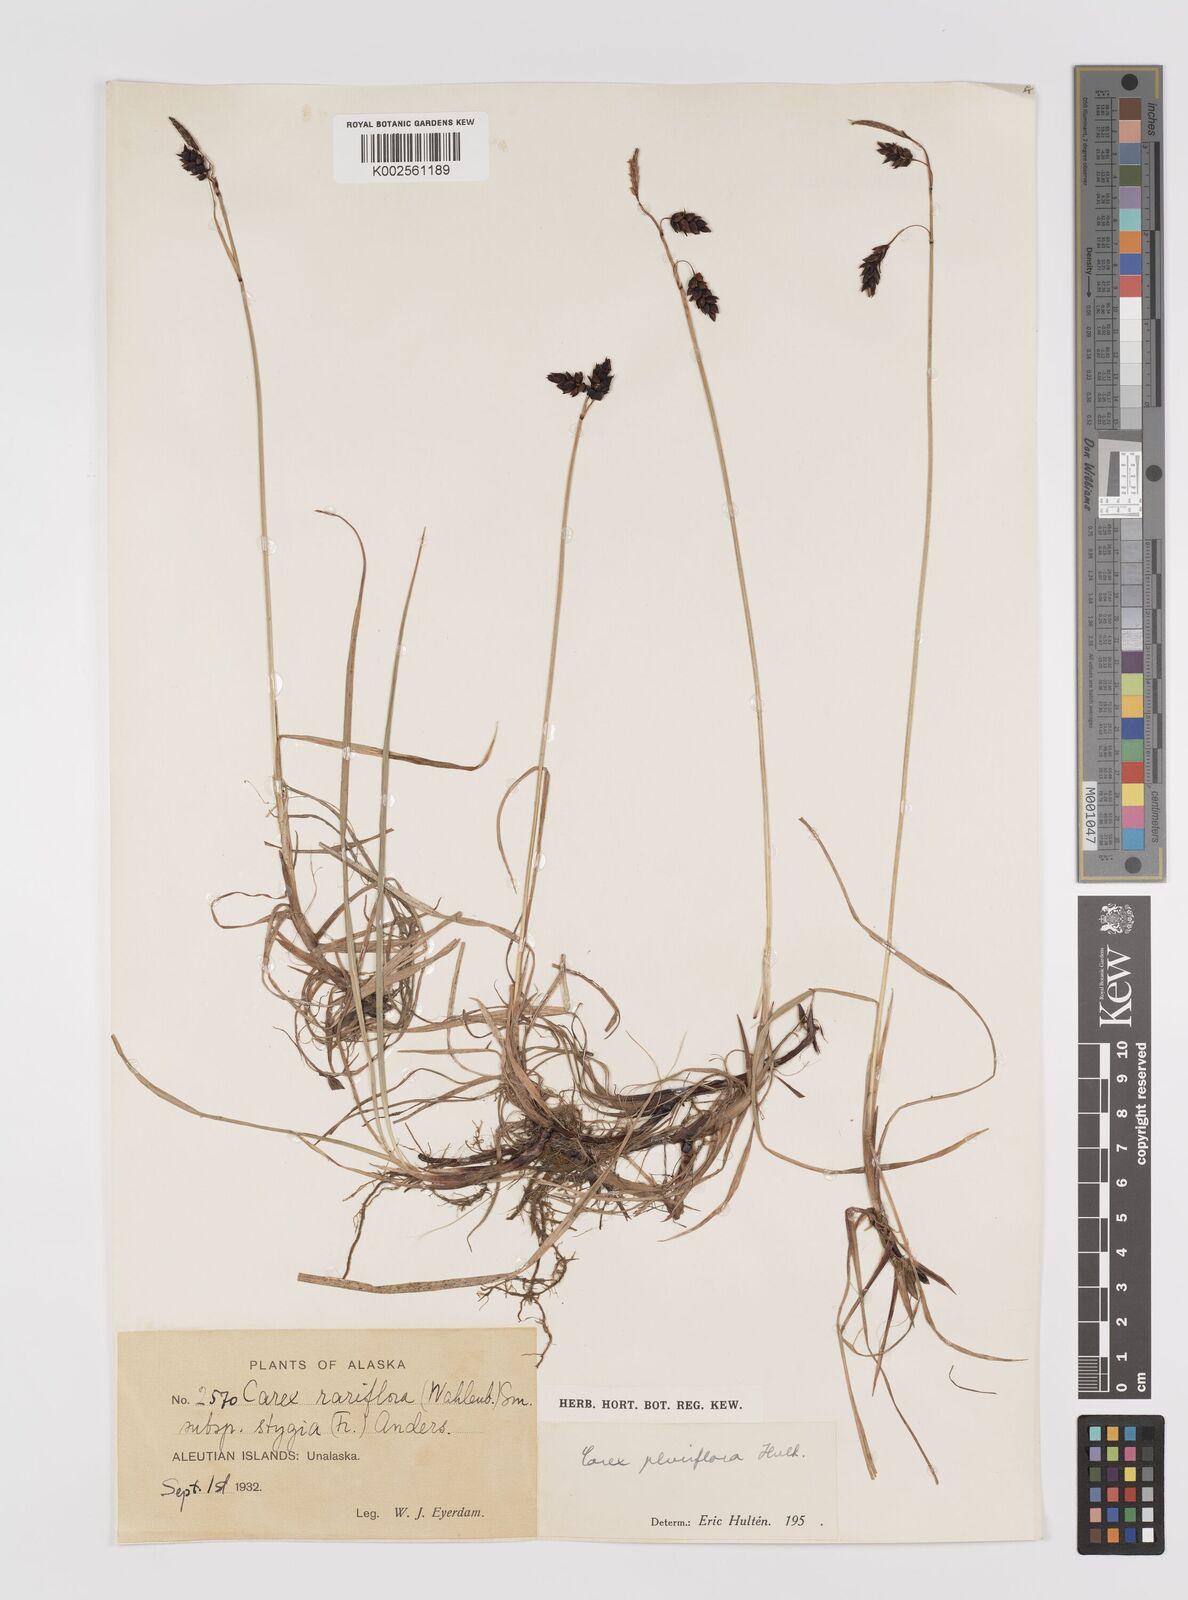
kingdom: Plantae
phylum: Tracheophyta
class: Liliopsida
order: Poales
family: Cyperaceae
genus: Carex
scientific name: Carex pluriflora
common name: Manyflower sedge
